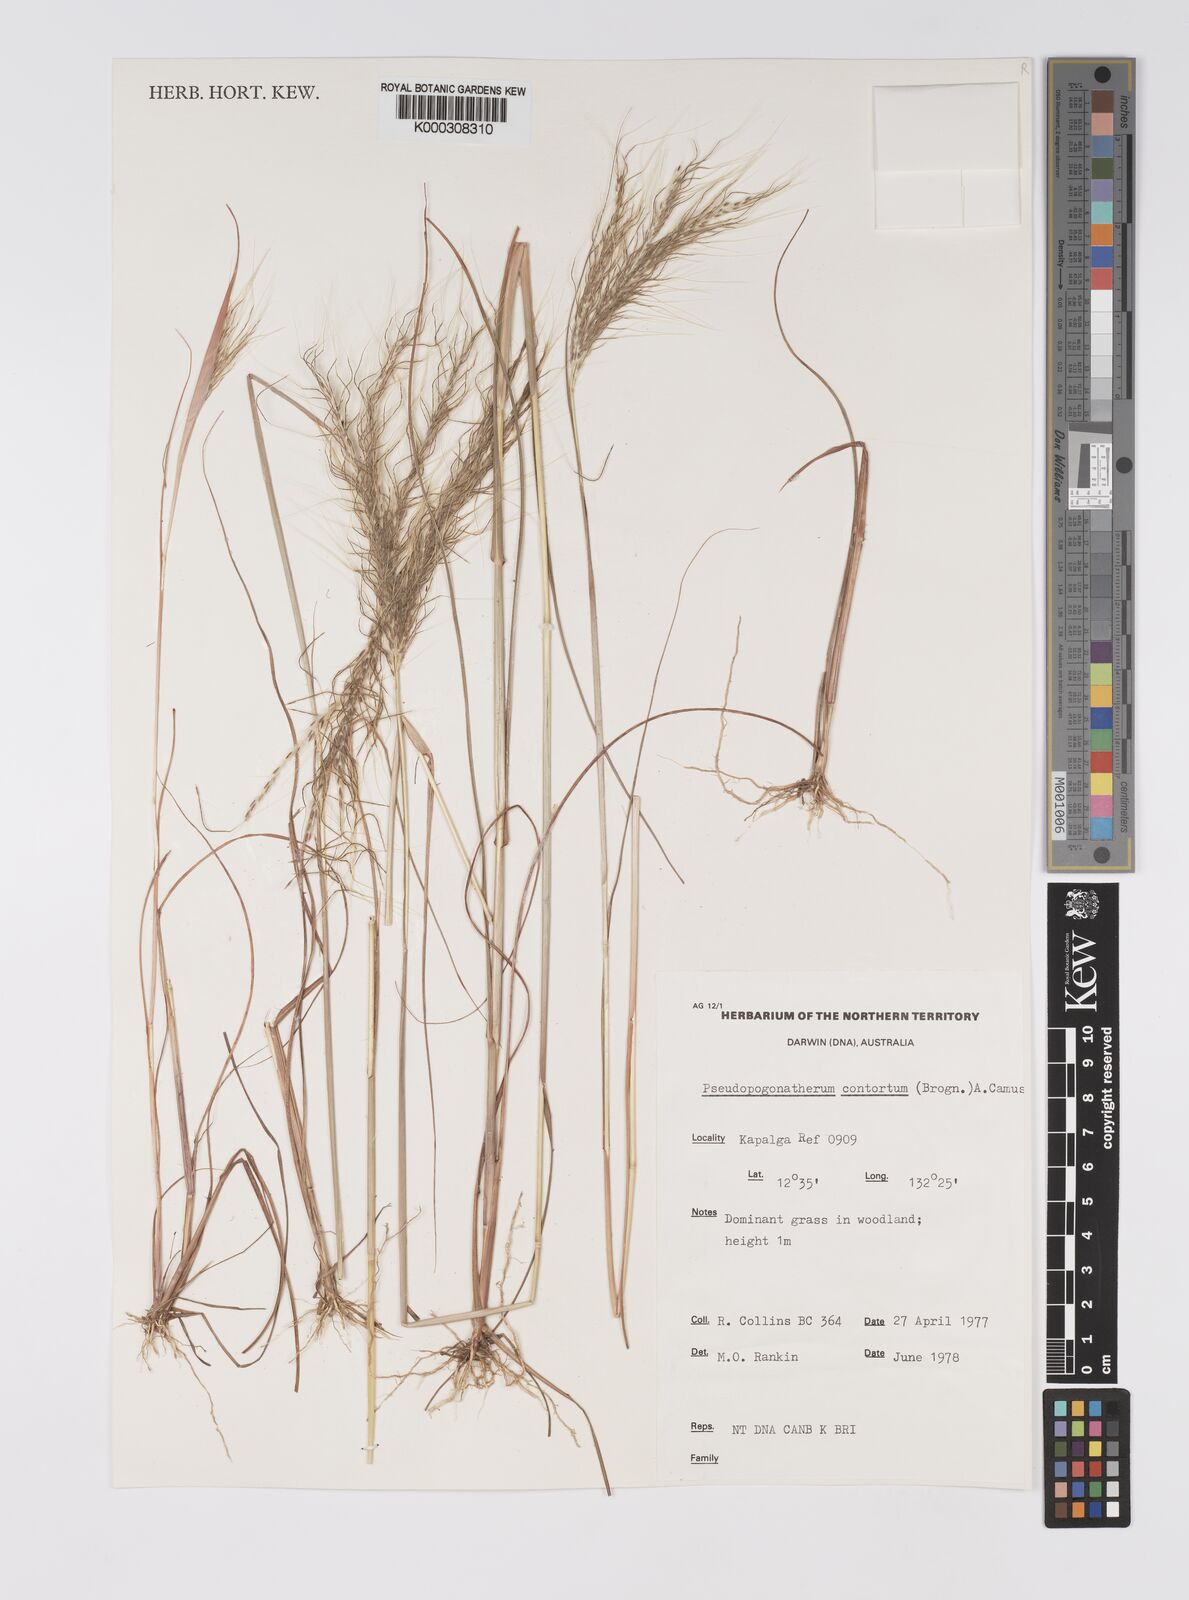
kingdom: Plantae
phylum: Tracheophyta
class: Liliopsida
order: Poales
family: Poaceae
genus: Eulalia
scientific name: Eulalia
